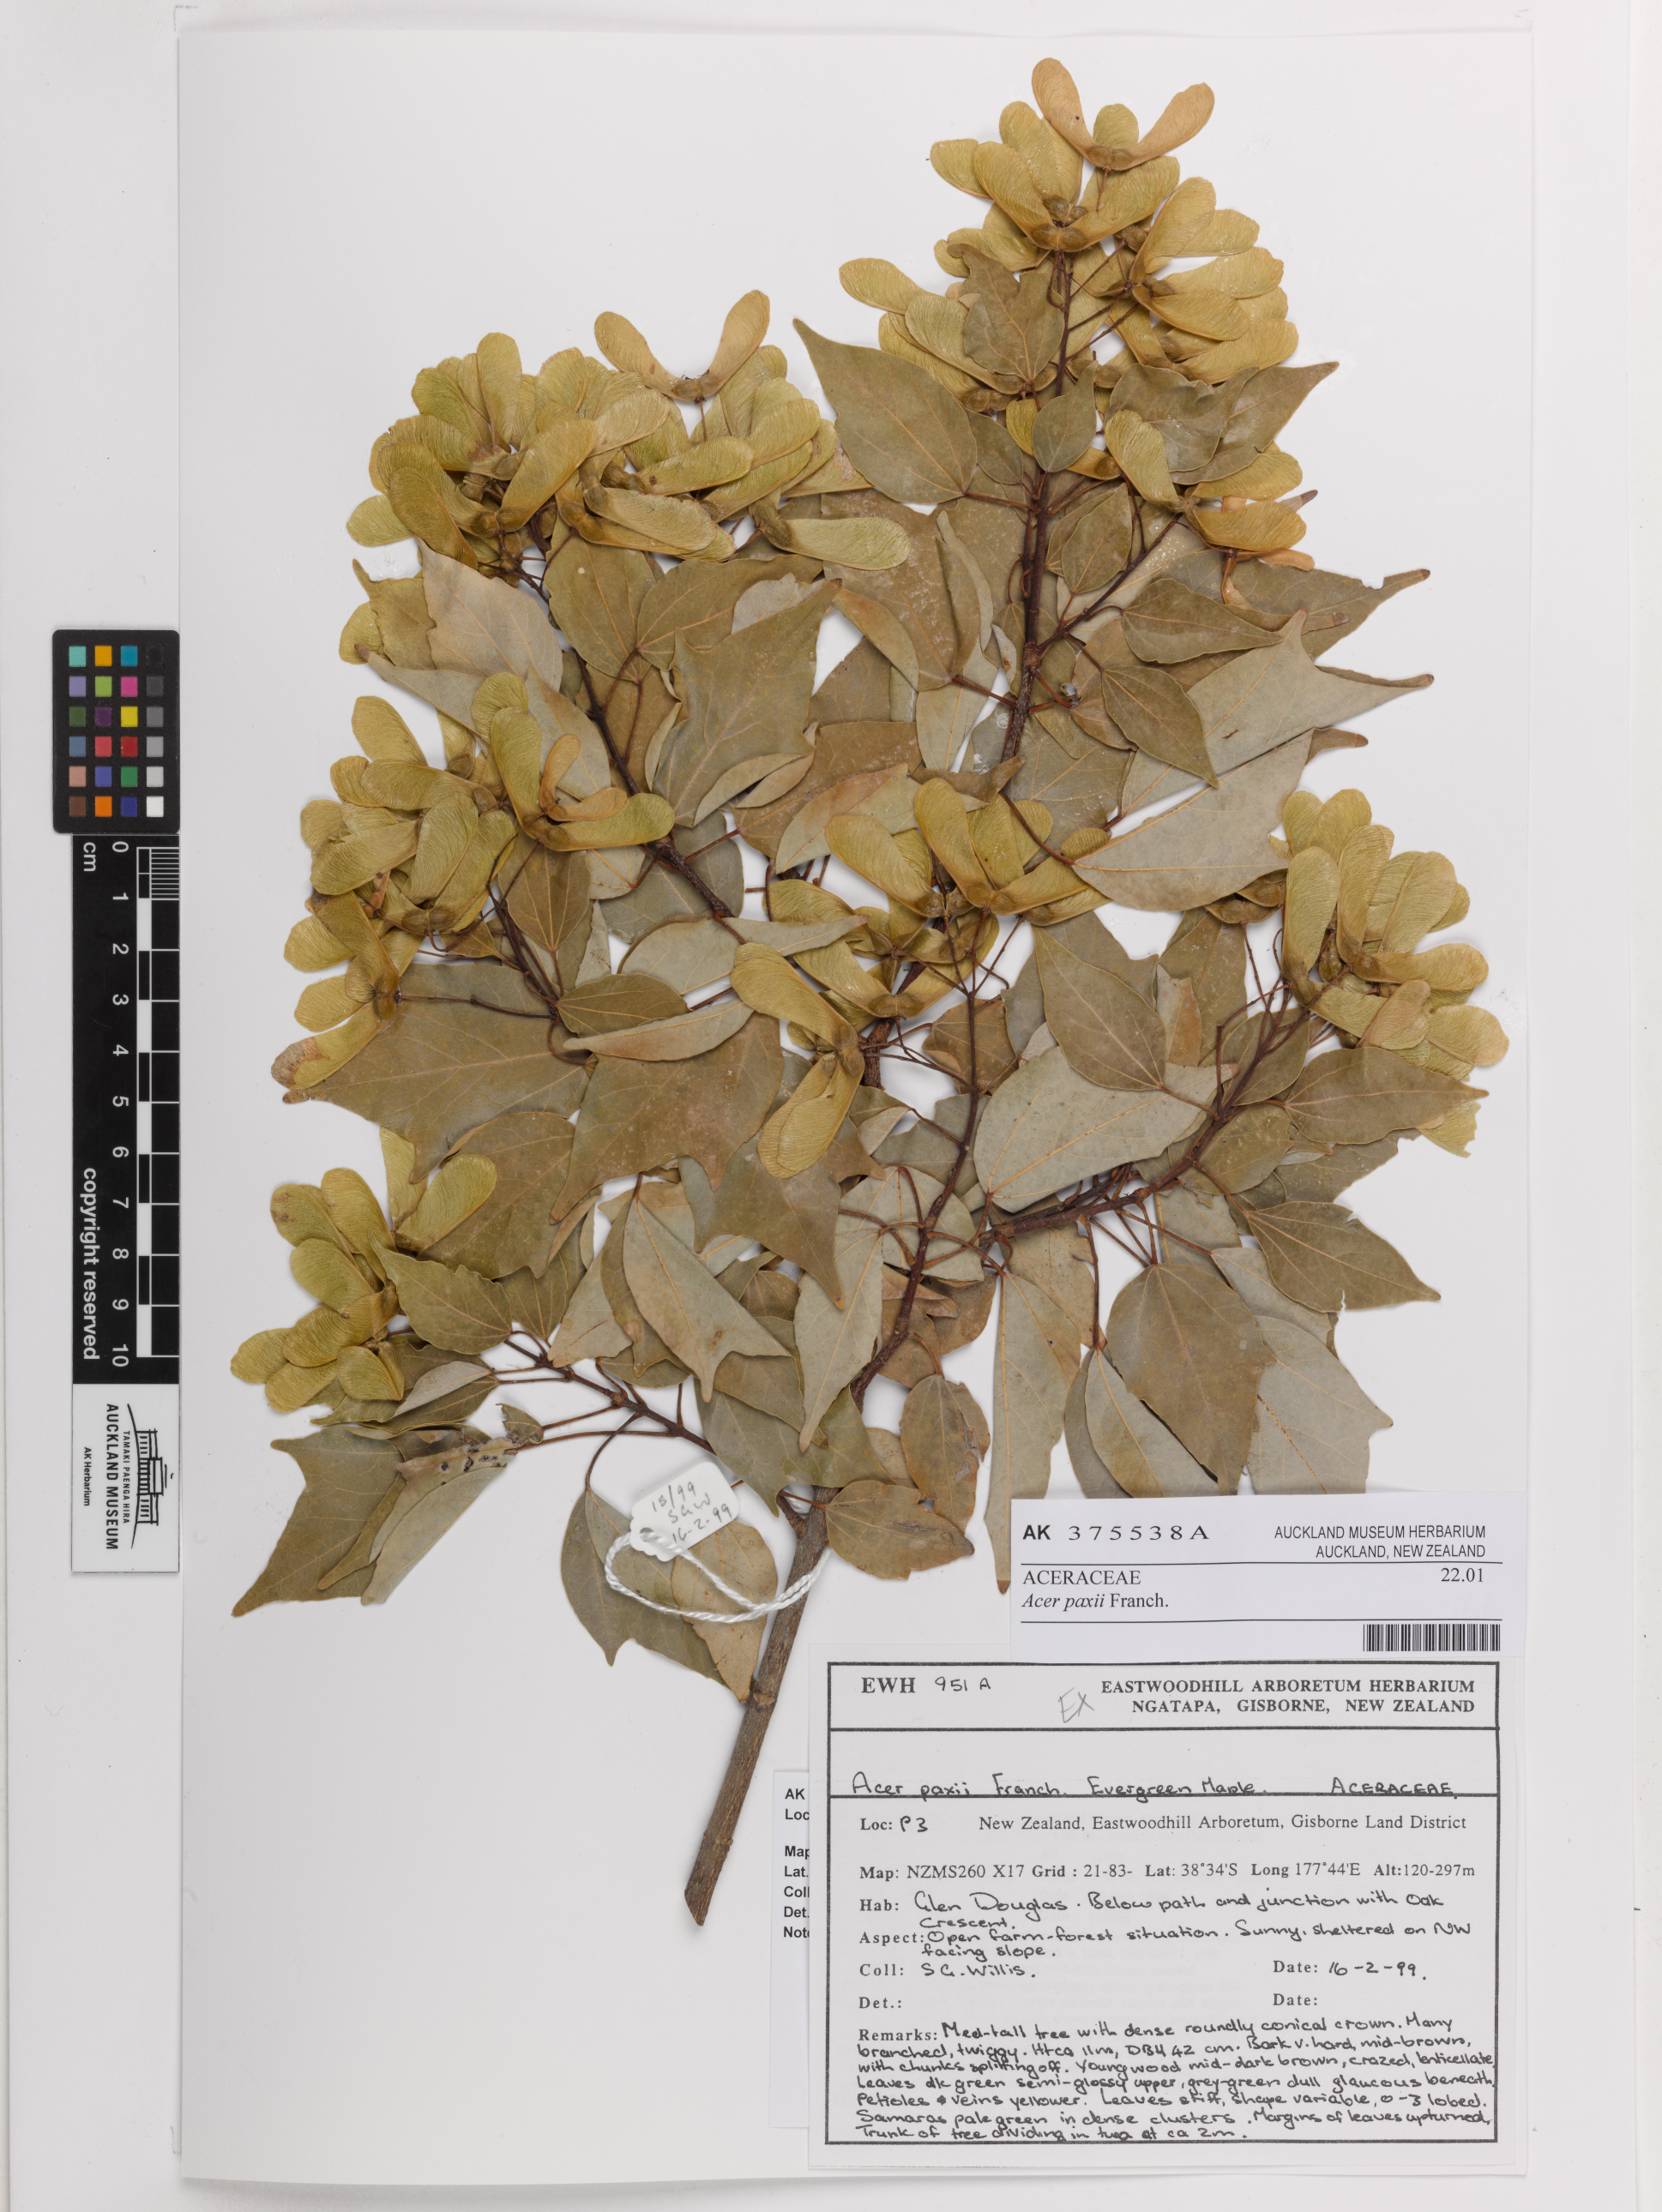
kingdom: Plantae
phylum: Tracheophyta
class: Magnoliopsida
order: Sapindales
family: Sapindaceae
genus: Acer
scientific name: Acer paxii
